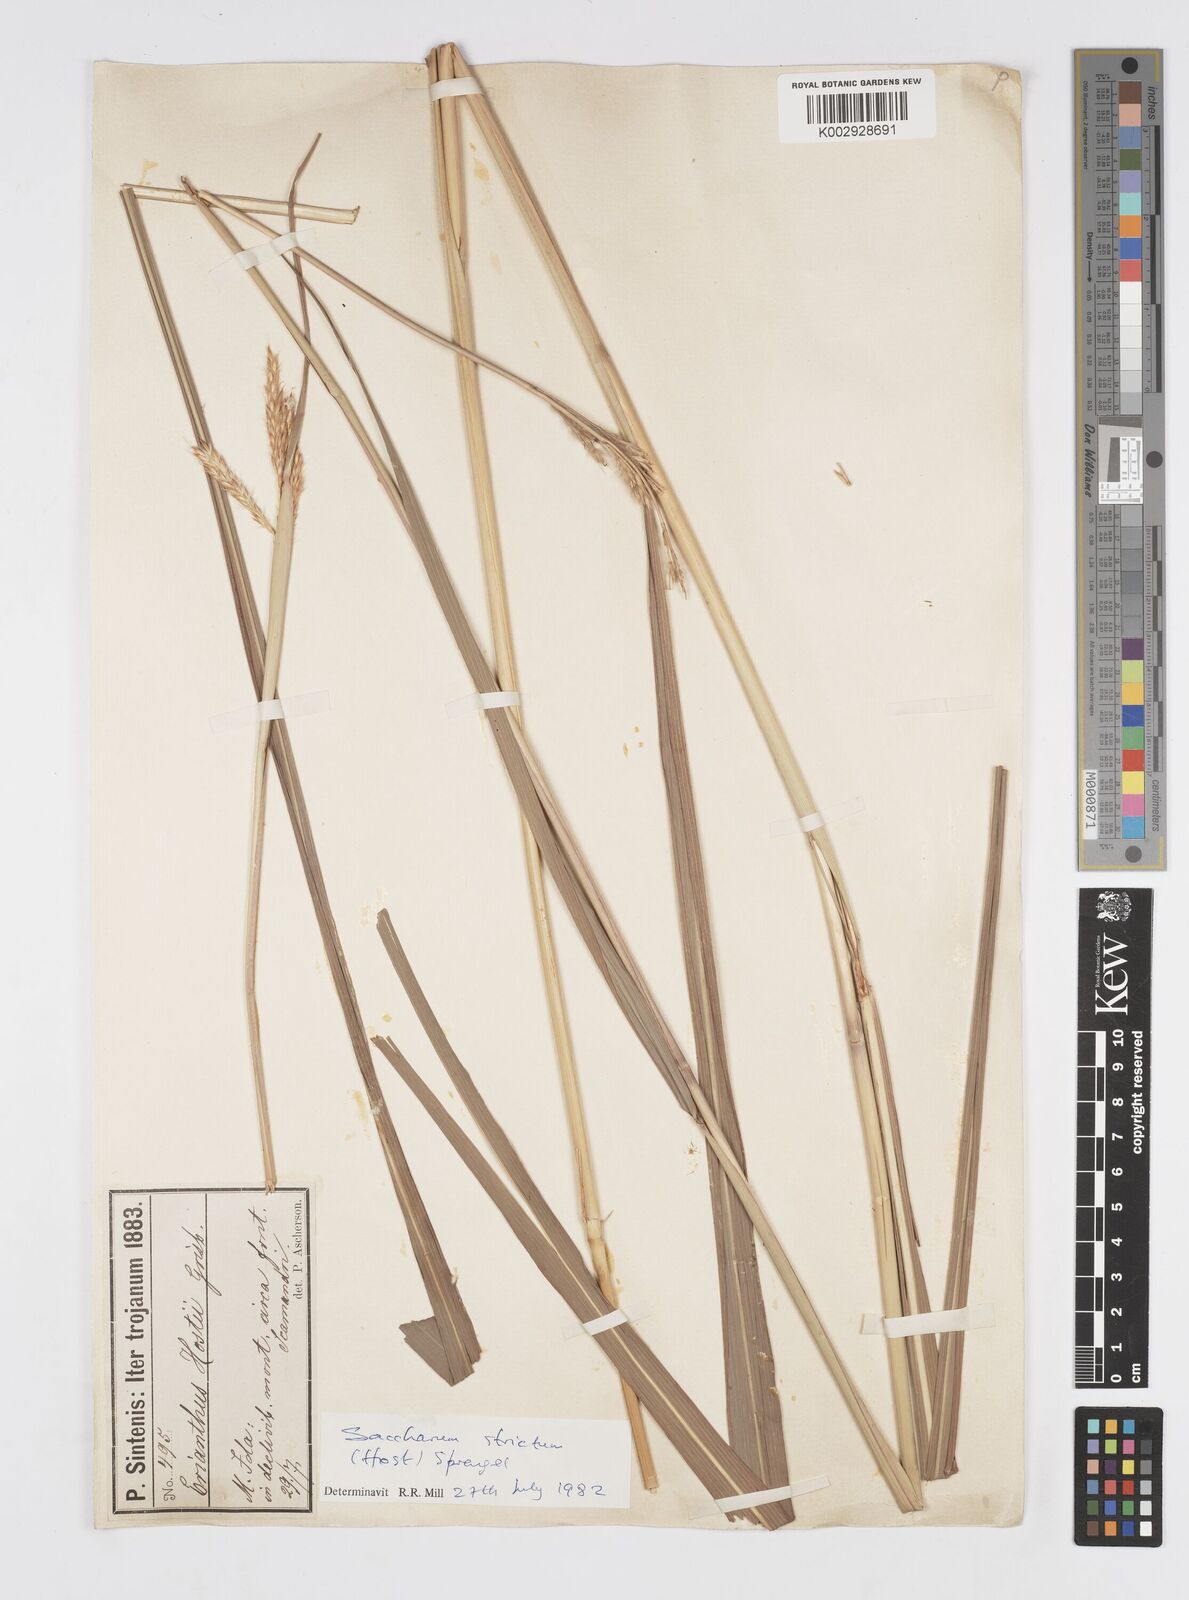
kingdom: Plantae
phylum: Tracheophyta
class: Liliopsida
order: Poales
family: Poaceae
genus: Tripidium
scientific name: Tripidium strictum
